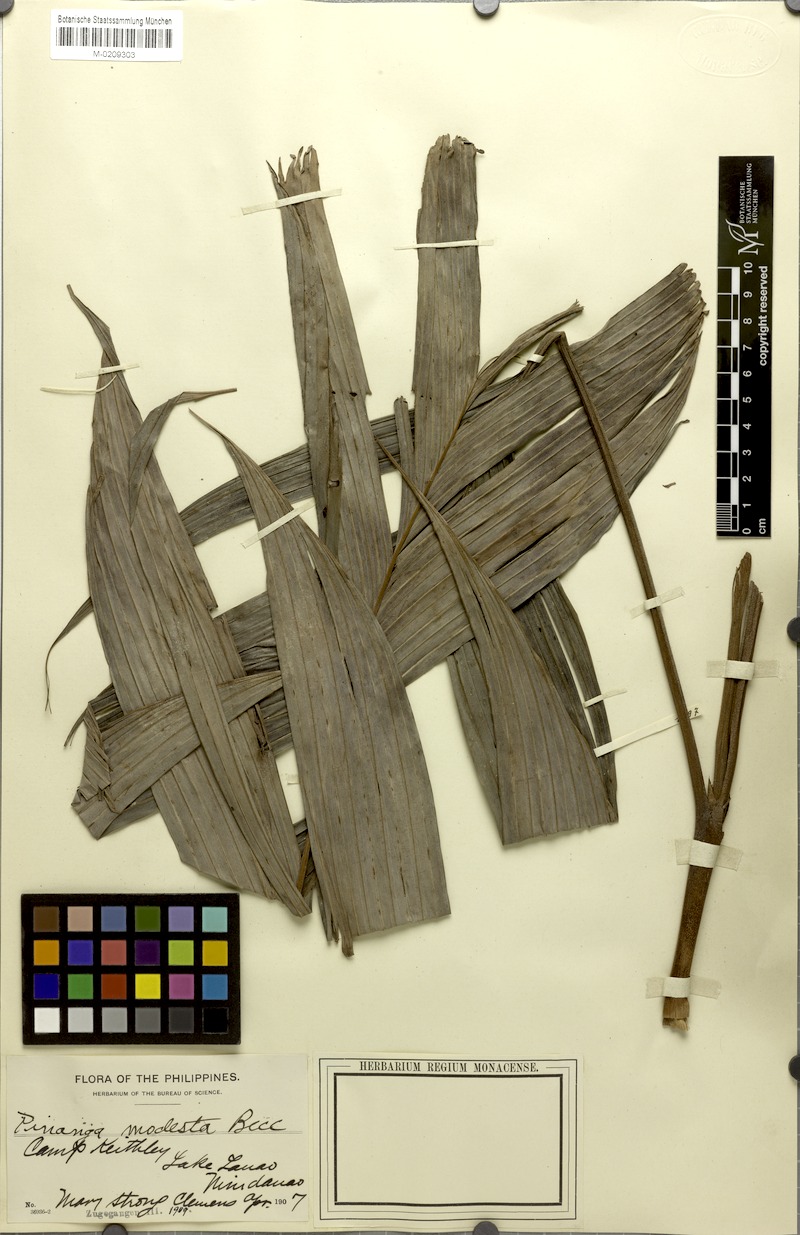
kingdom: Plantae
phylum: Tracheophyta
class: Liliopsida
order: Arecales
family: Arecaceae
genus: Pinanga
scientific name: Pinanga modesta
